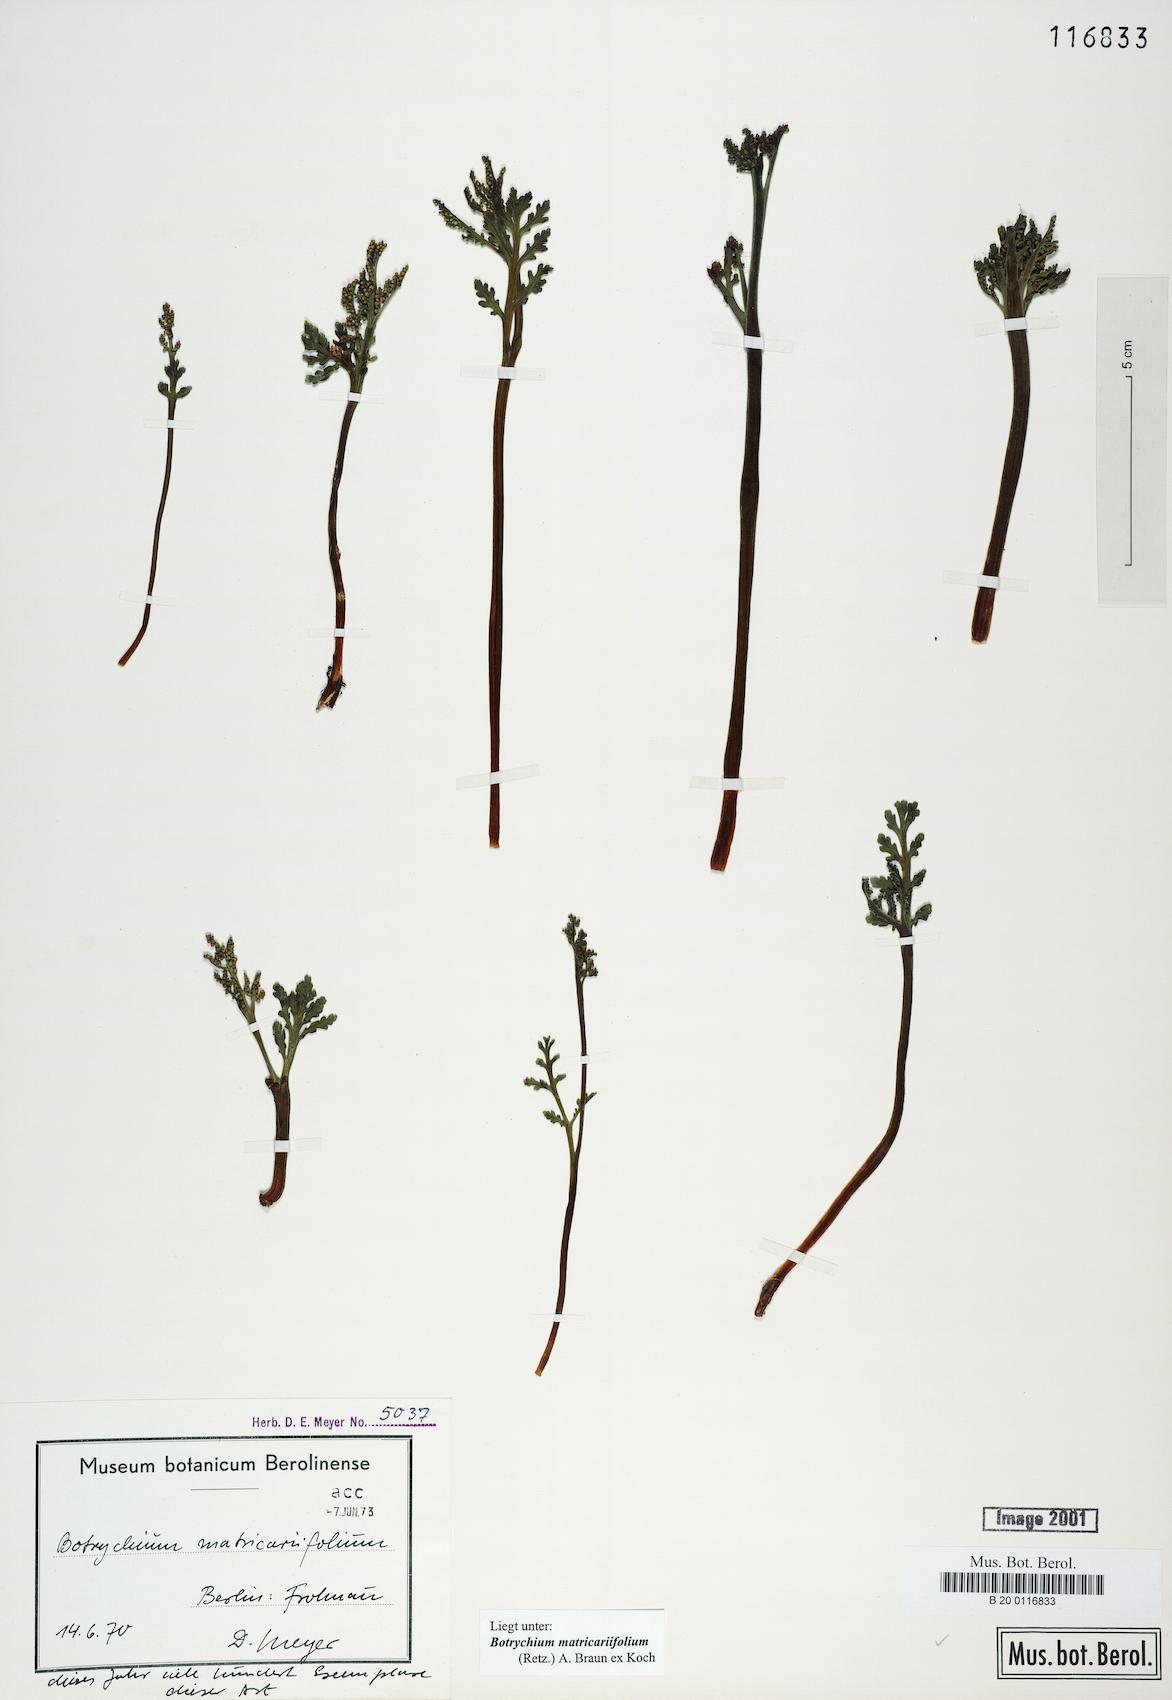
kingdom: Plantae
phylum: Tracheophyta
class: Polypodiopsida
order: Ophioglossales
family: Ophioglossaceae
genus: Botrychium
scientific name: Botrychium matricariifolium
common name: Branched moonwort
